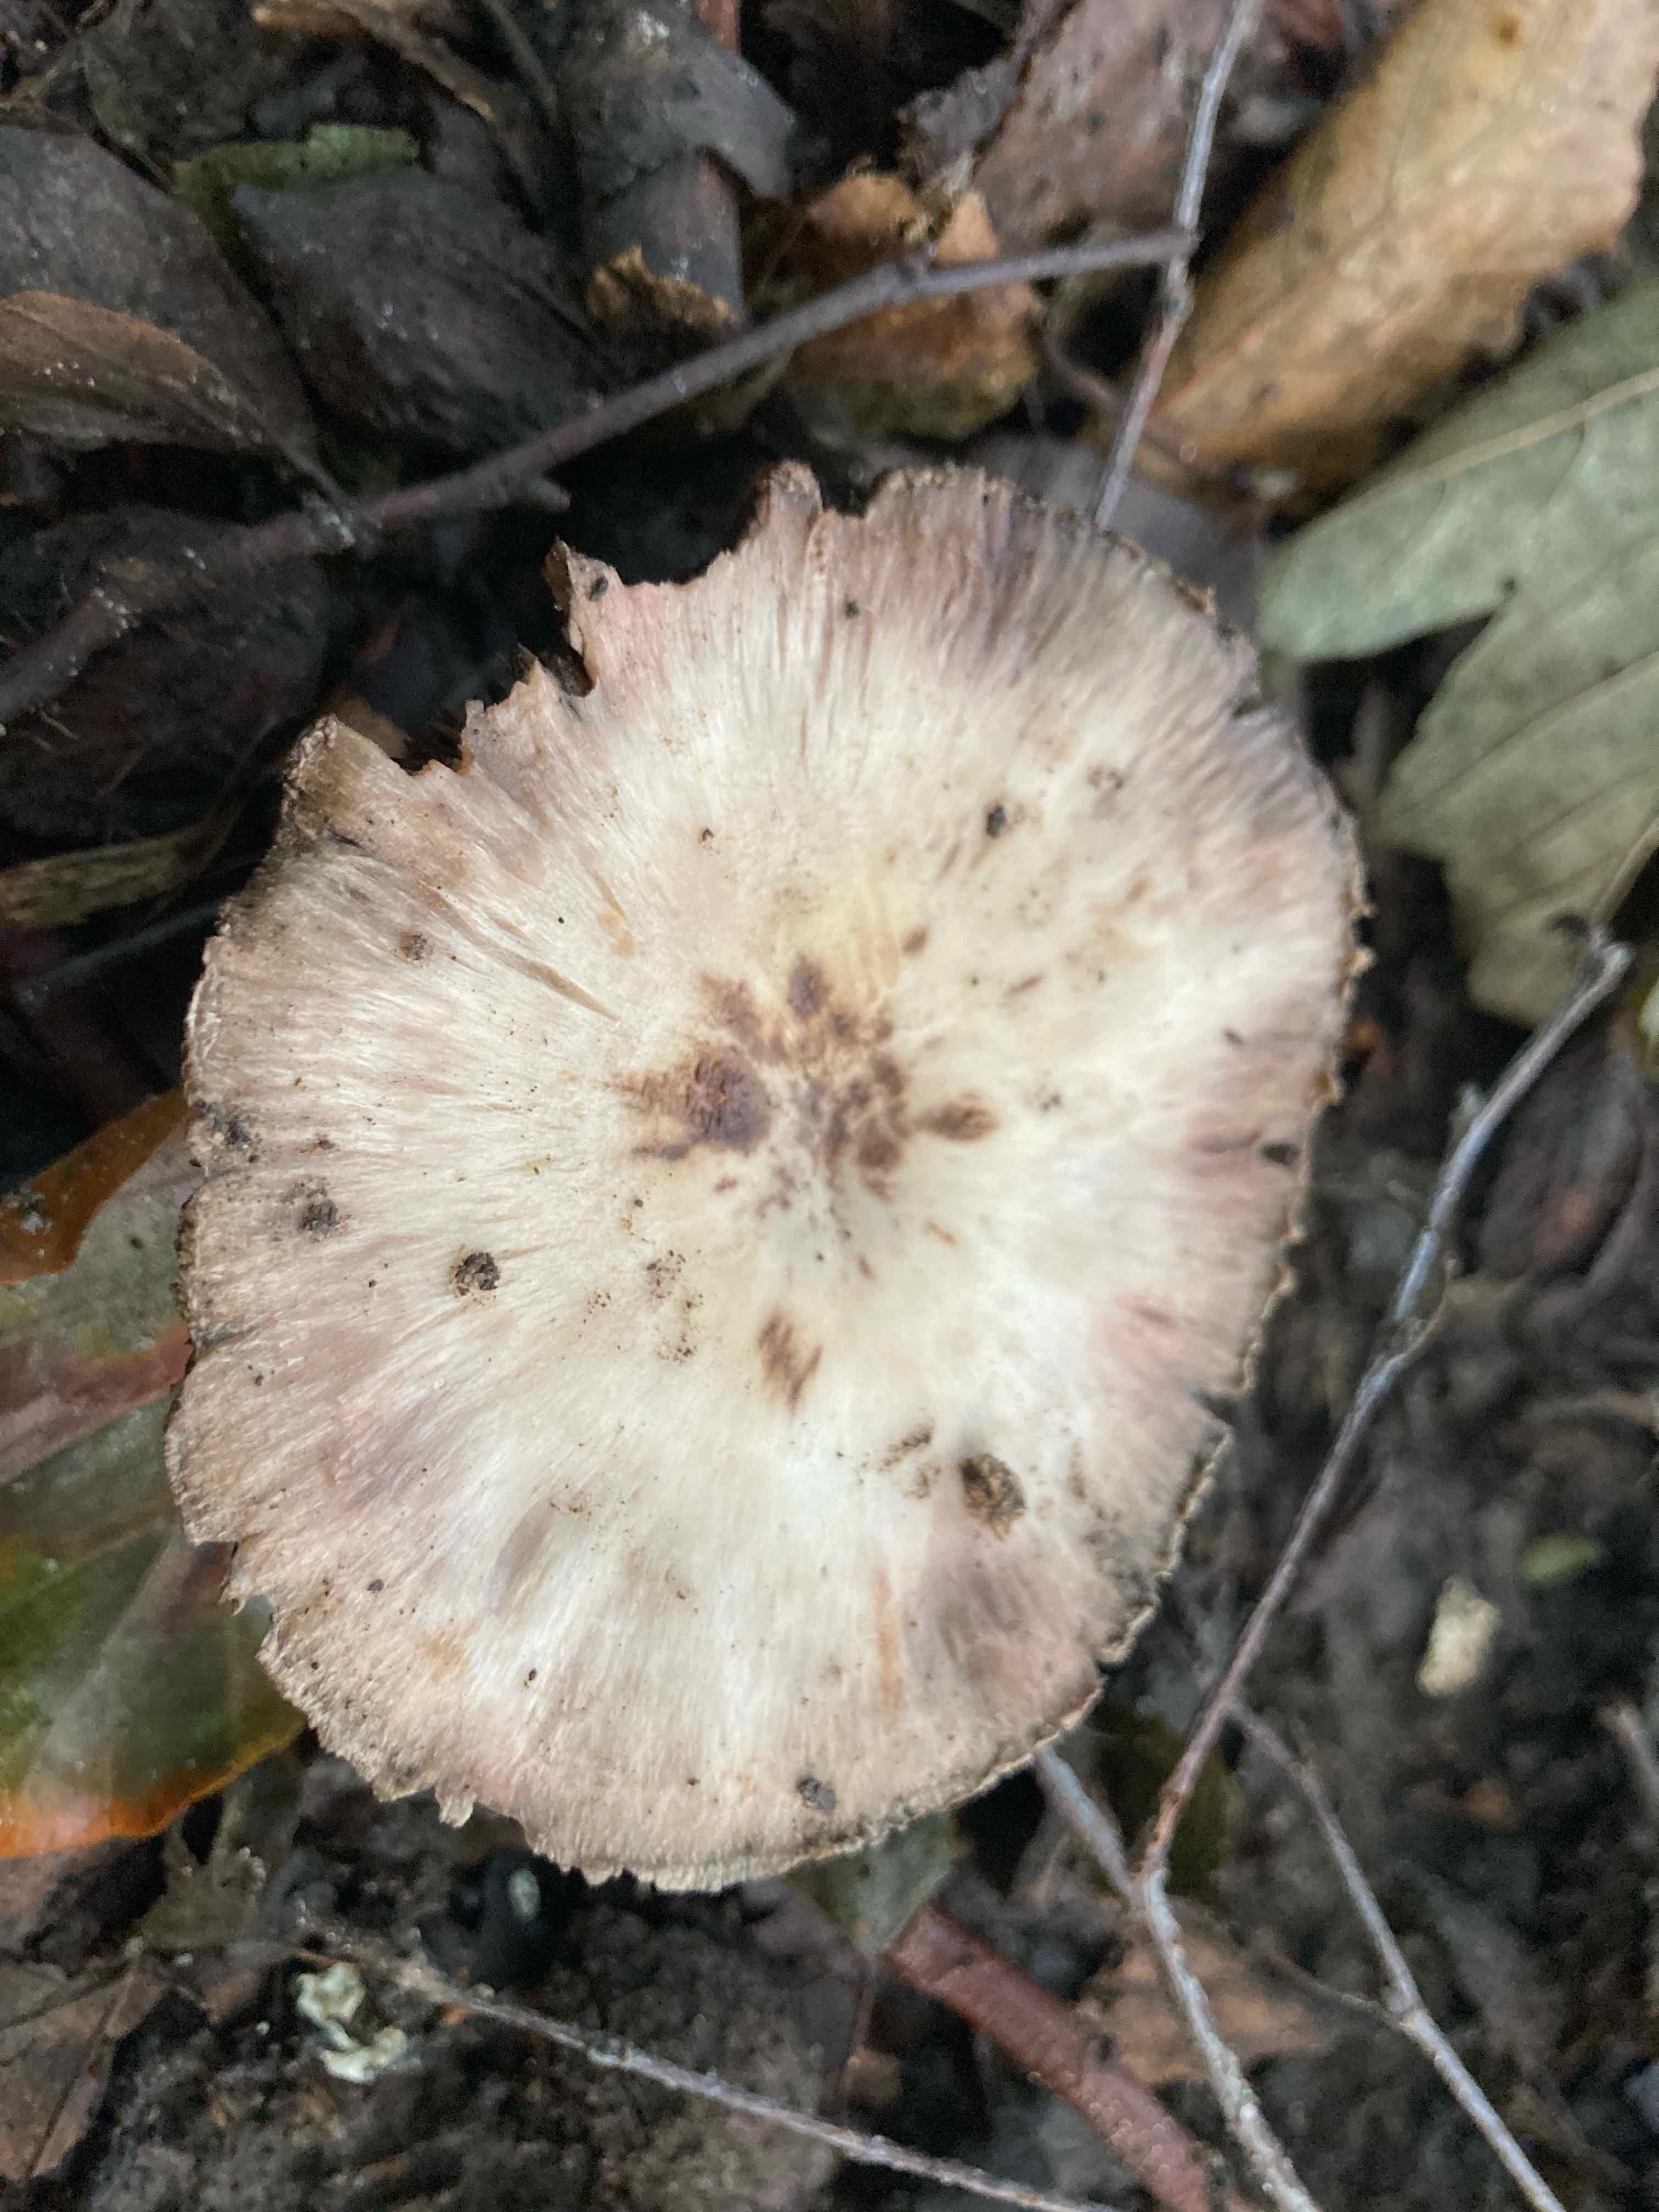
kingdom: Fungi
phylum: Basidiomycota
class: Agaricomycetes
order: Agaricales
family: Agaricaceae
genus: Agaricus
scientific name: Agaricus
